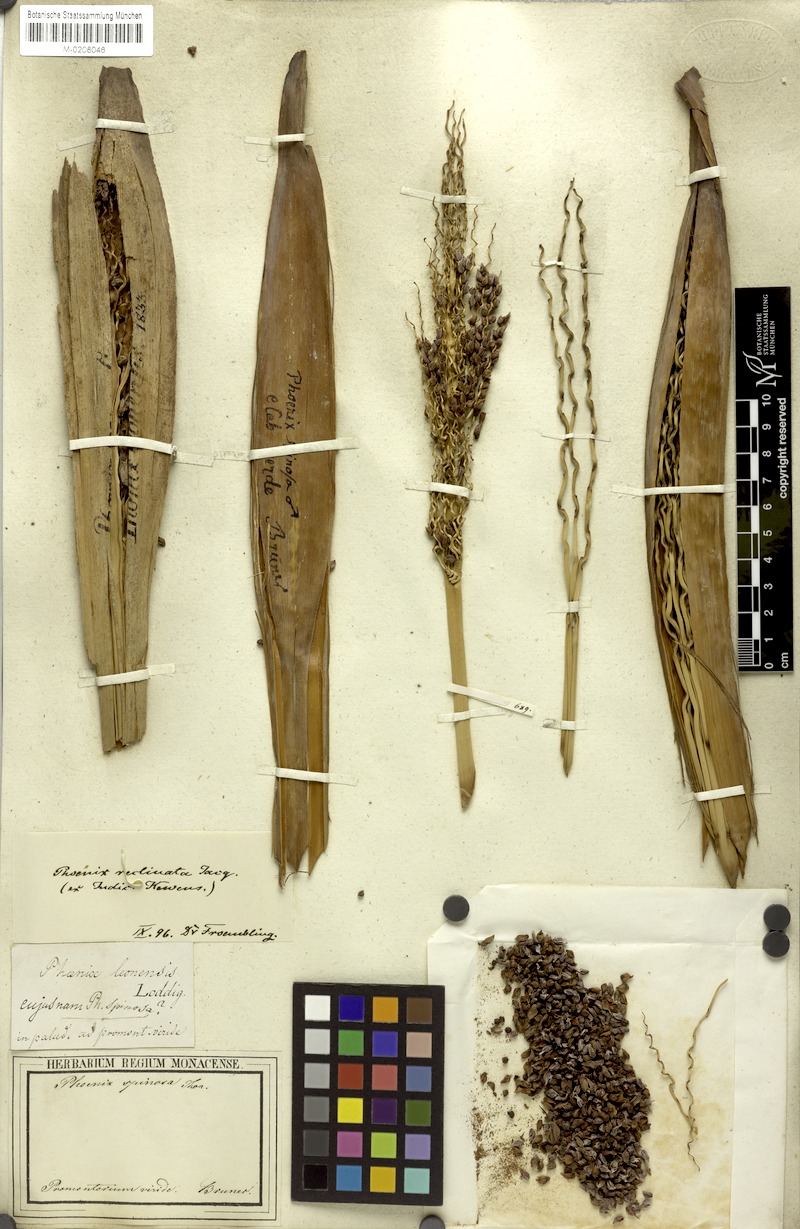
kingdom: Plantae
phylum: Tracheophyta
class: Liliopsida
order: Arecales
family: Arecaceae
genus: Phoenix
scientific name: Phoenix reclinata
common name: Senegal date palm
